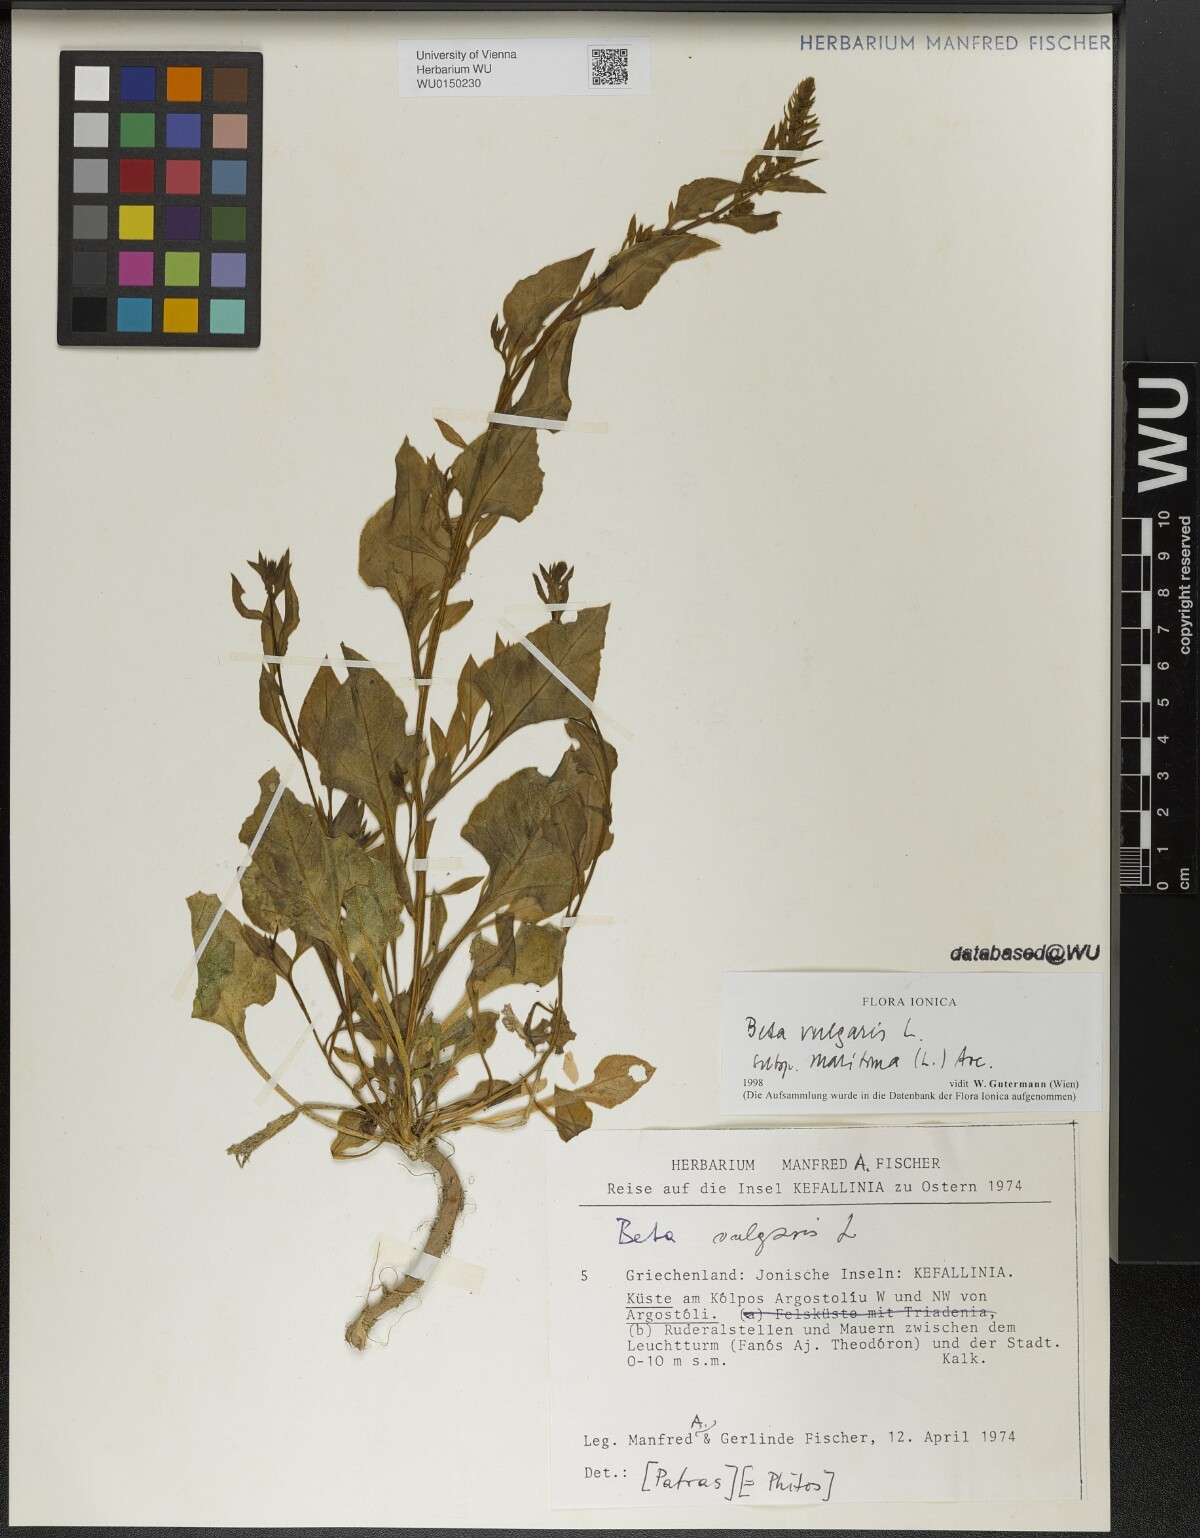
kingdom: Plantae
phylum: Tracheophyta
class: Magnoliopsida
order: Caryophyllales
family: Amaranthaceae
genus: Beta
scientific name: Beta maritima
